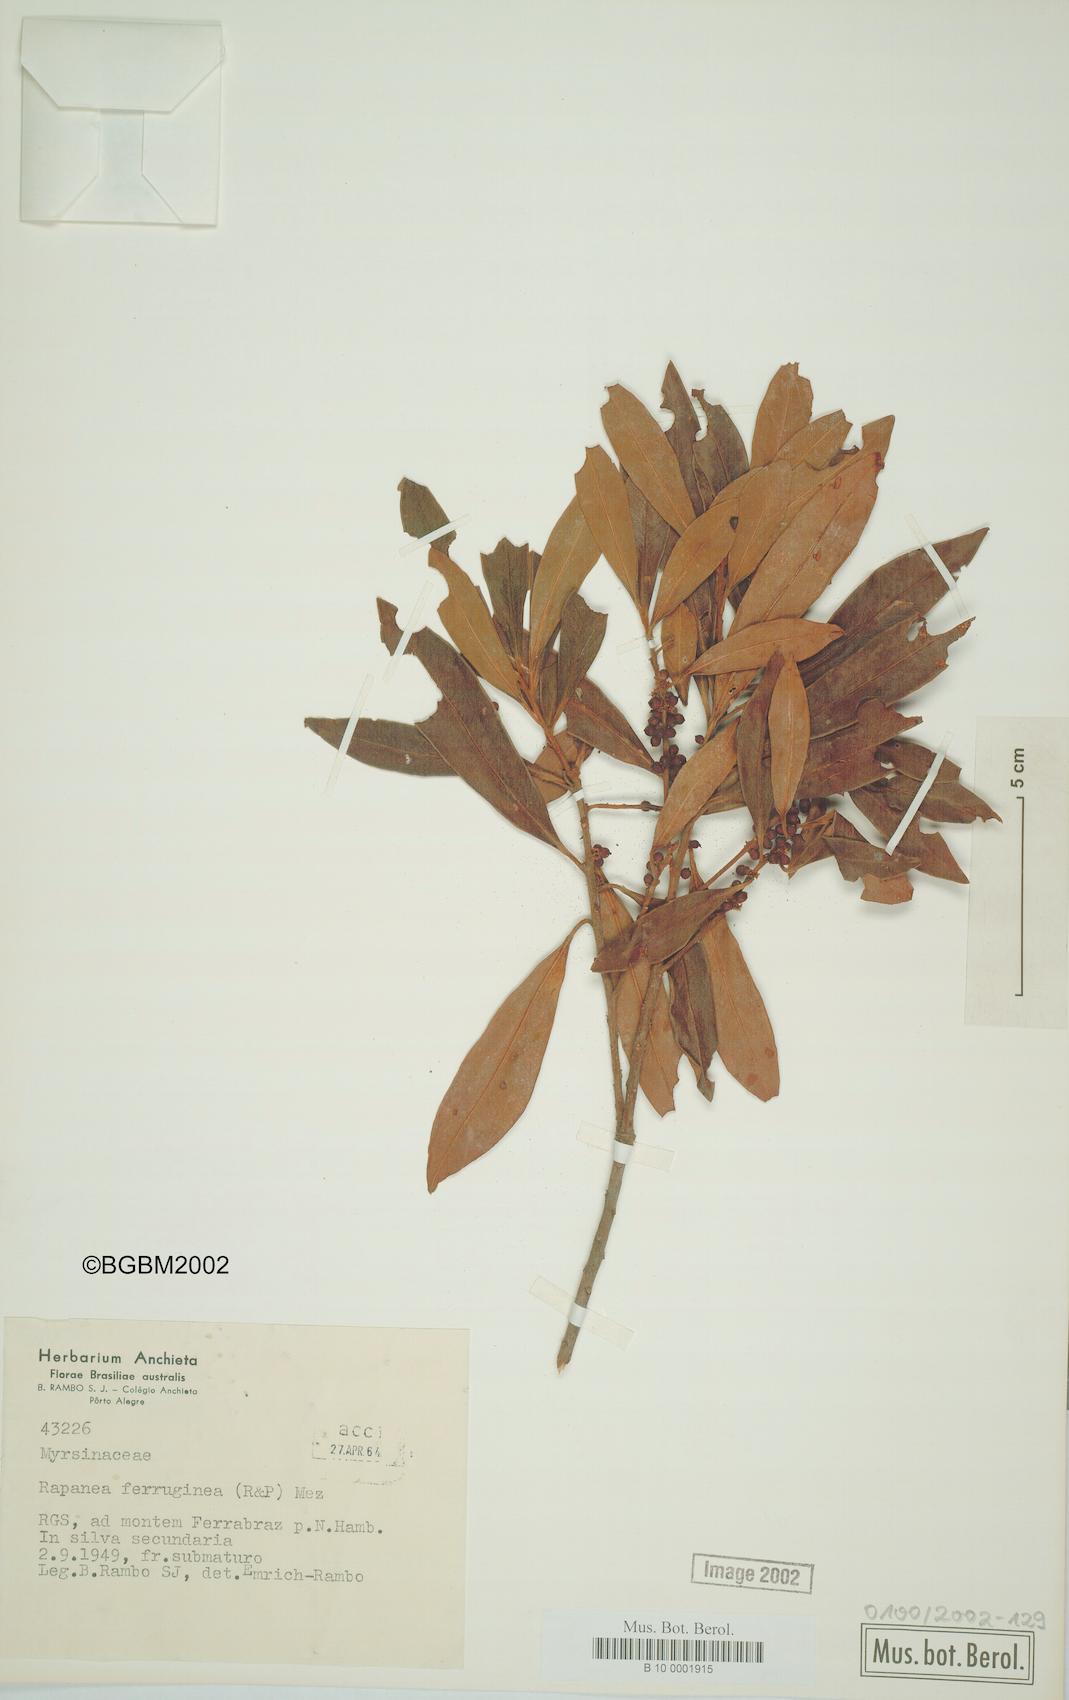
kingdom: Plantae
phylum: Tracheophyta
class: Magnoliopsida
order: Ericales
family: Primulaceae
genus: Myrsine
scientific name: Myrsine coriacea
